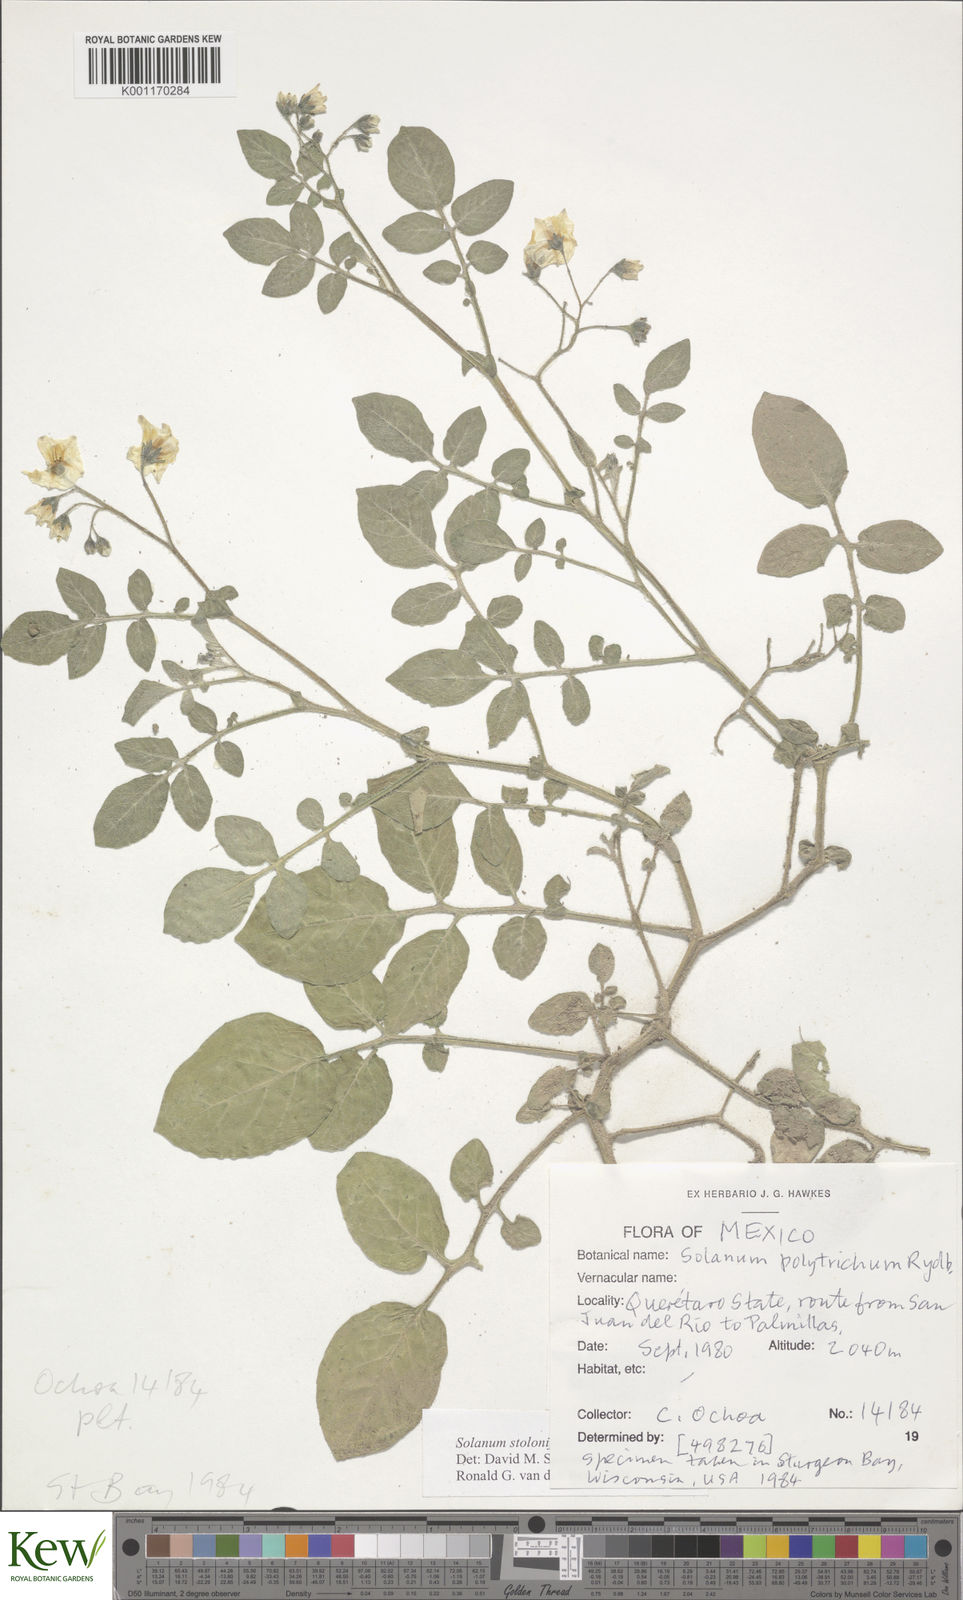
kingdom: Plantae
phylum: Tracheophyta
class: Magnoliopsida
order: Solanales
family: Solanaceae
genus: Solanum
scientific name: Solanum stoloniferum
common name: Fendler's nighshade
